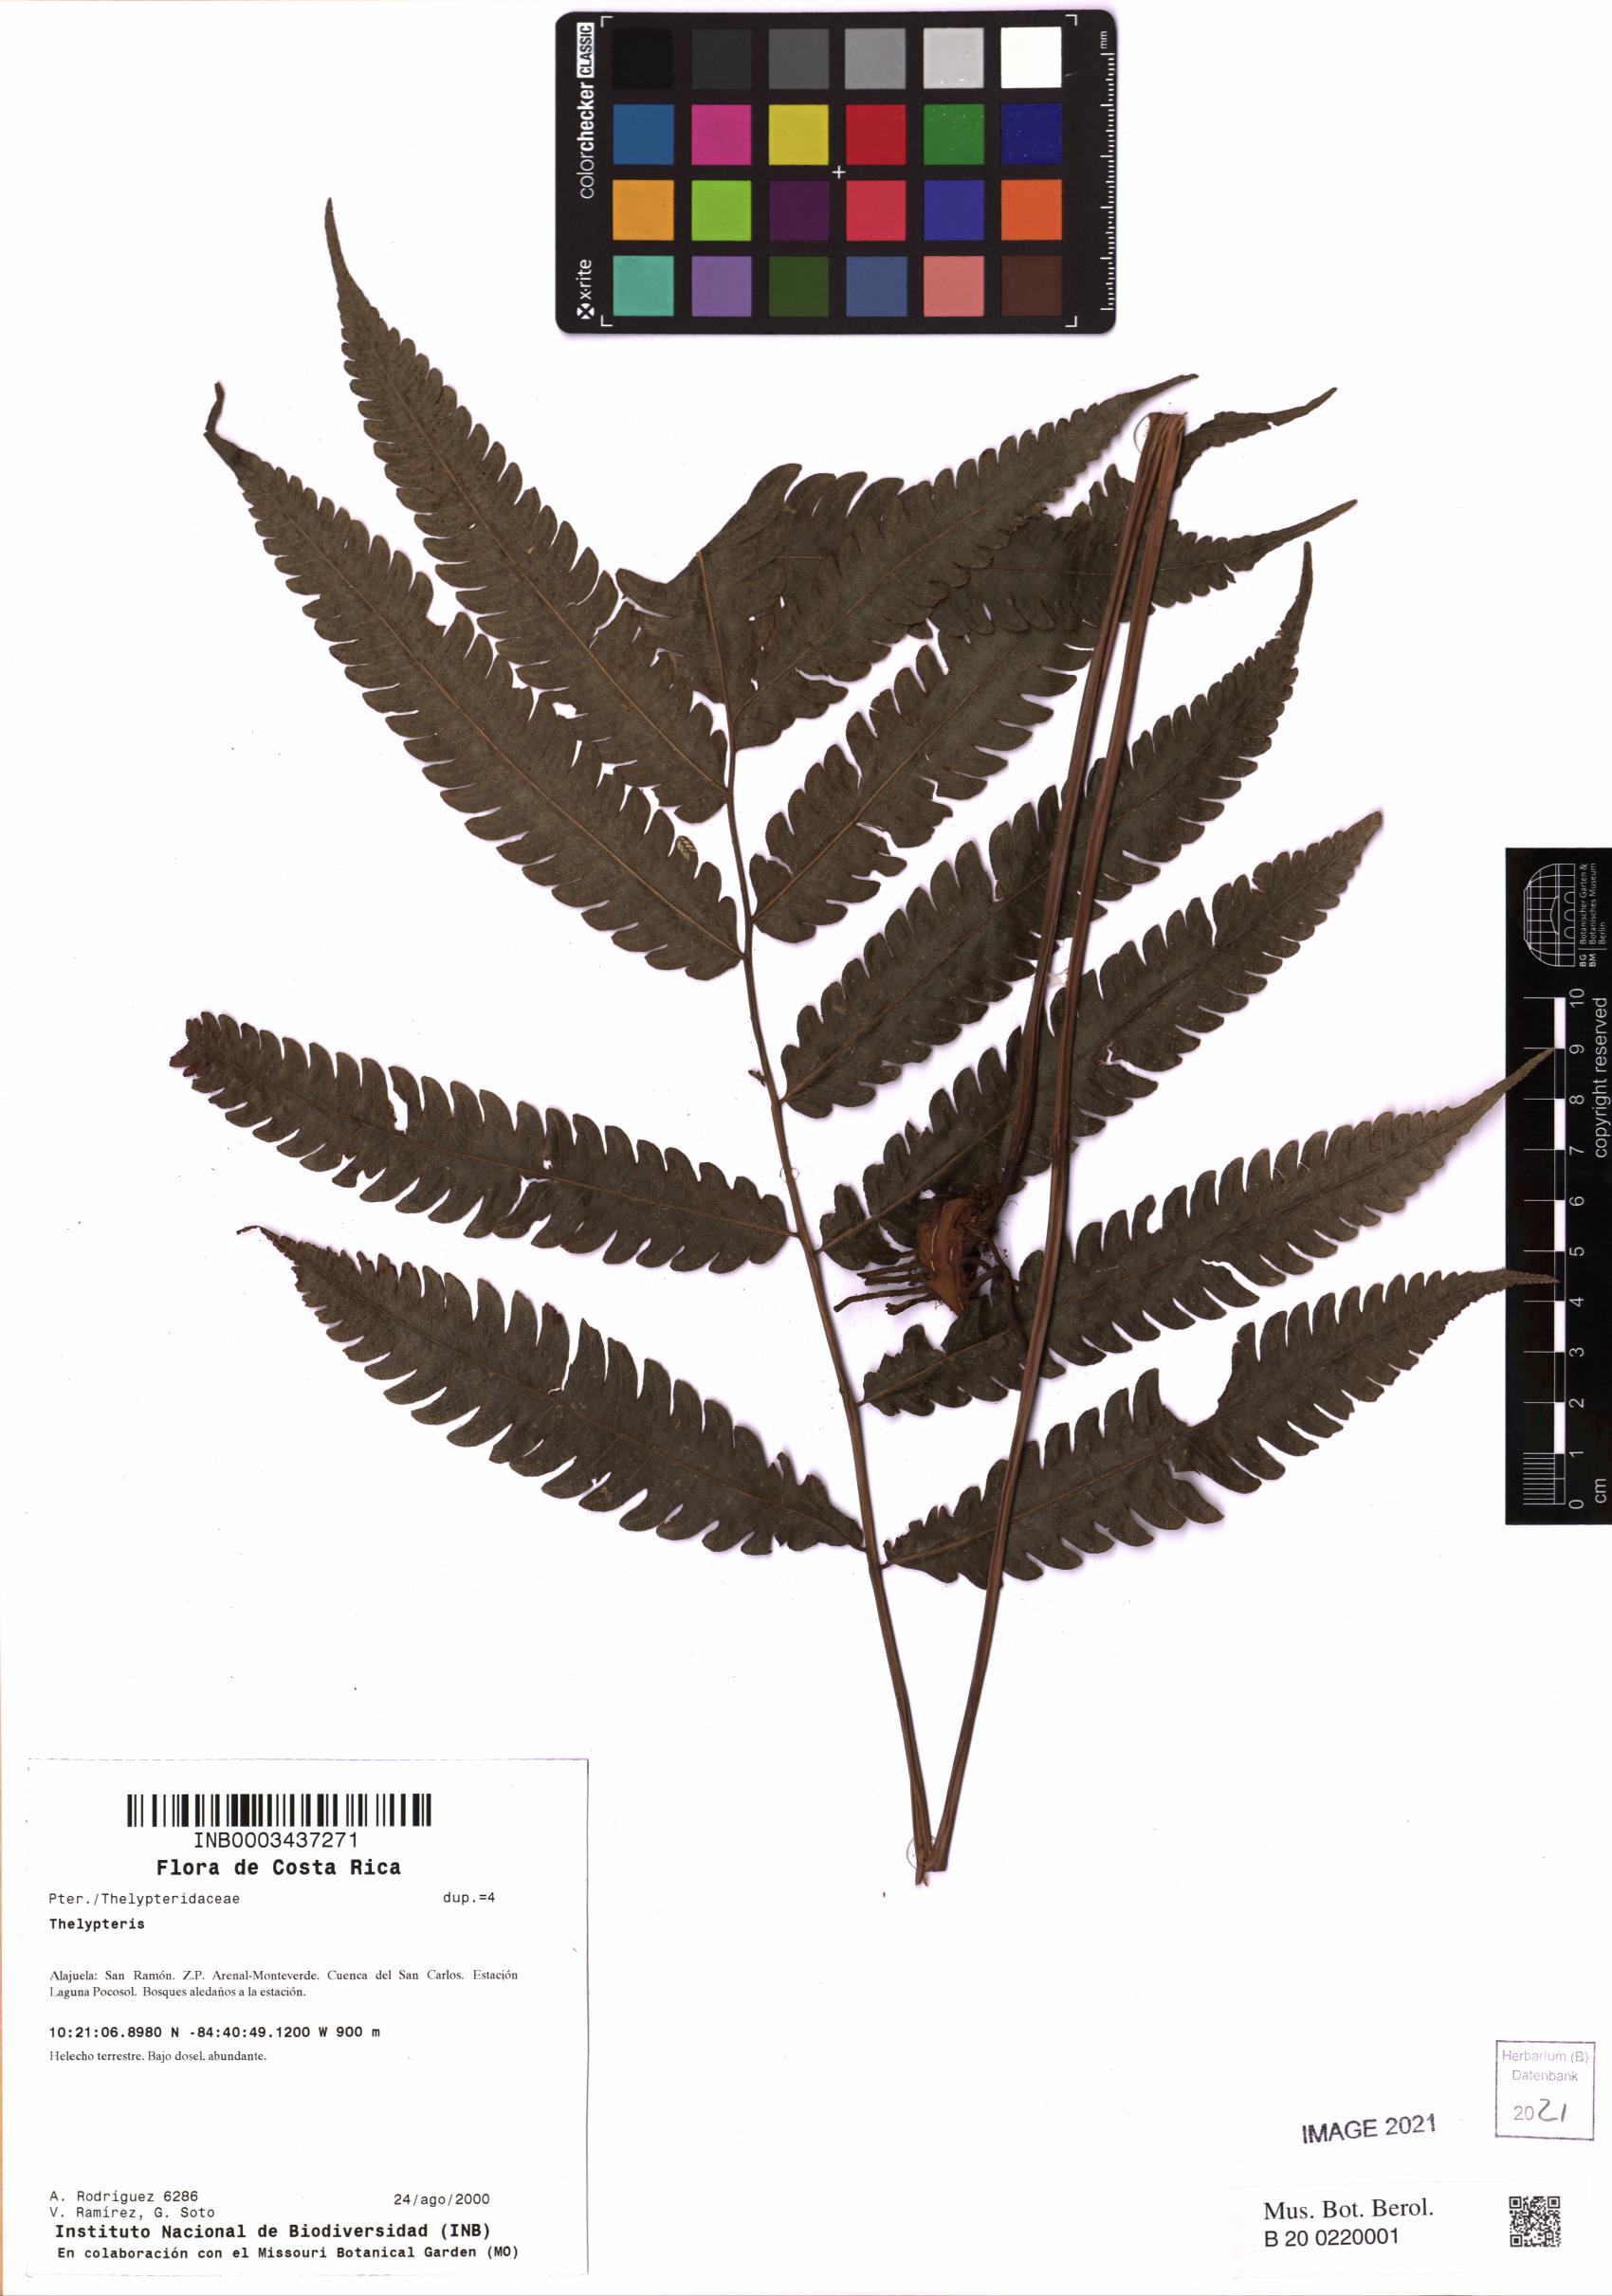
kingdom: Plantae
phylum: Tracheophyta
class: Polypodiopsida
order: Polypodiales
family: Thelypteridaceae
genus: Thelypteris
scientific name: Thelypteris
